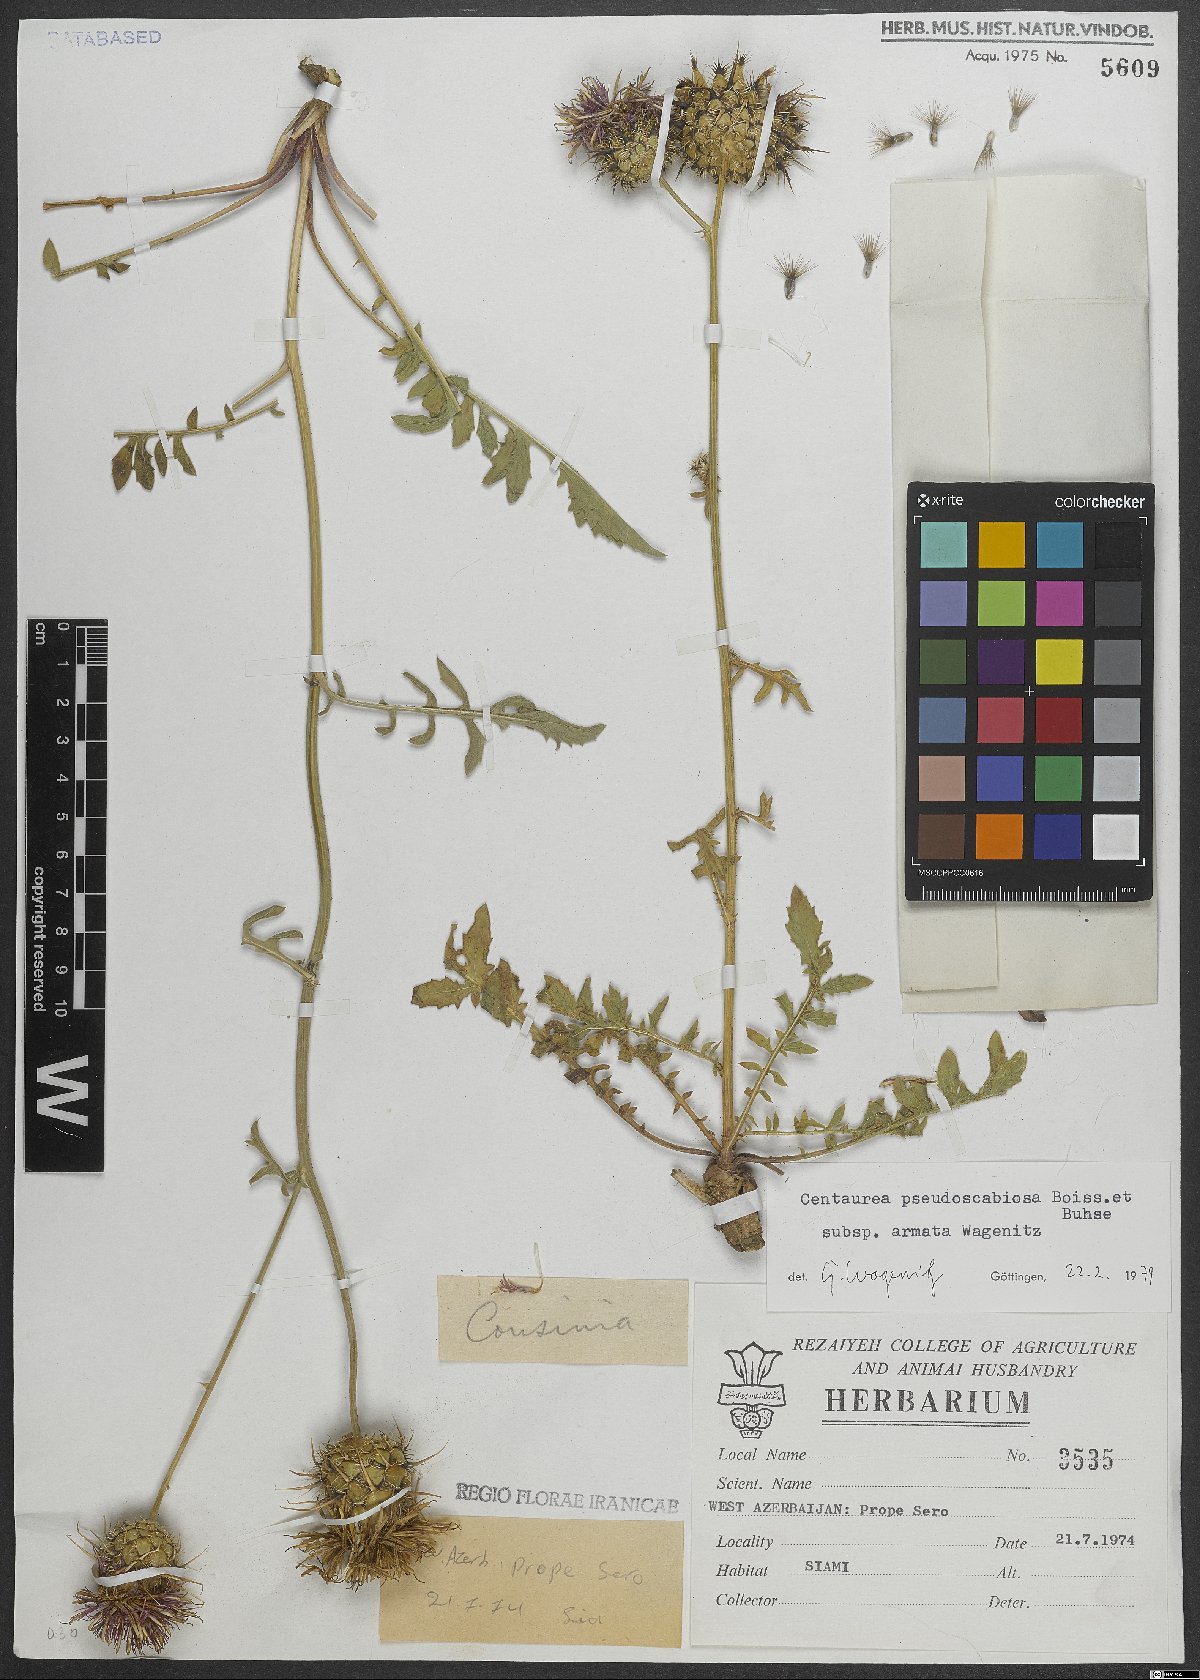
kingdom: Plantae
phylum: Tracheophyta
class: Magnoliopsida
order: Asterales
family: Asteraceae
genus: Centaurea
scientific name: Centaurea pseudoscabiosa
